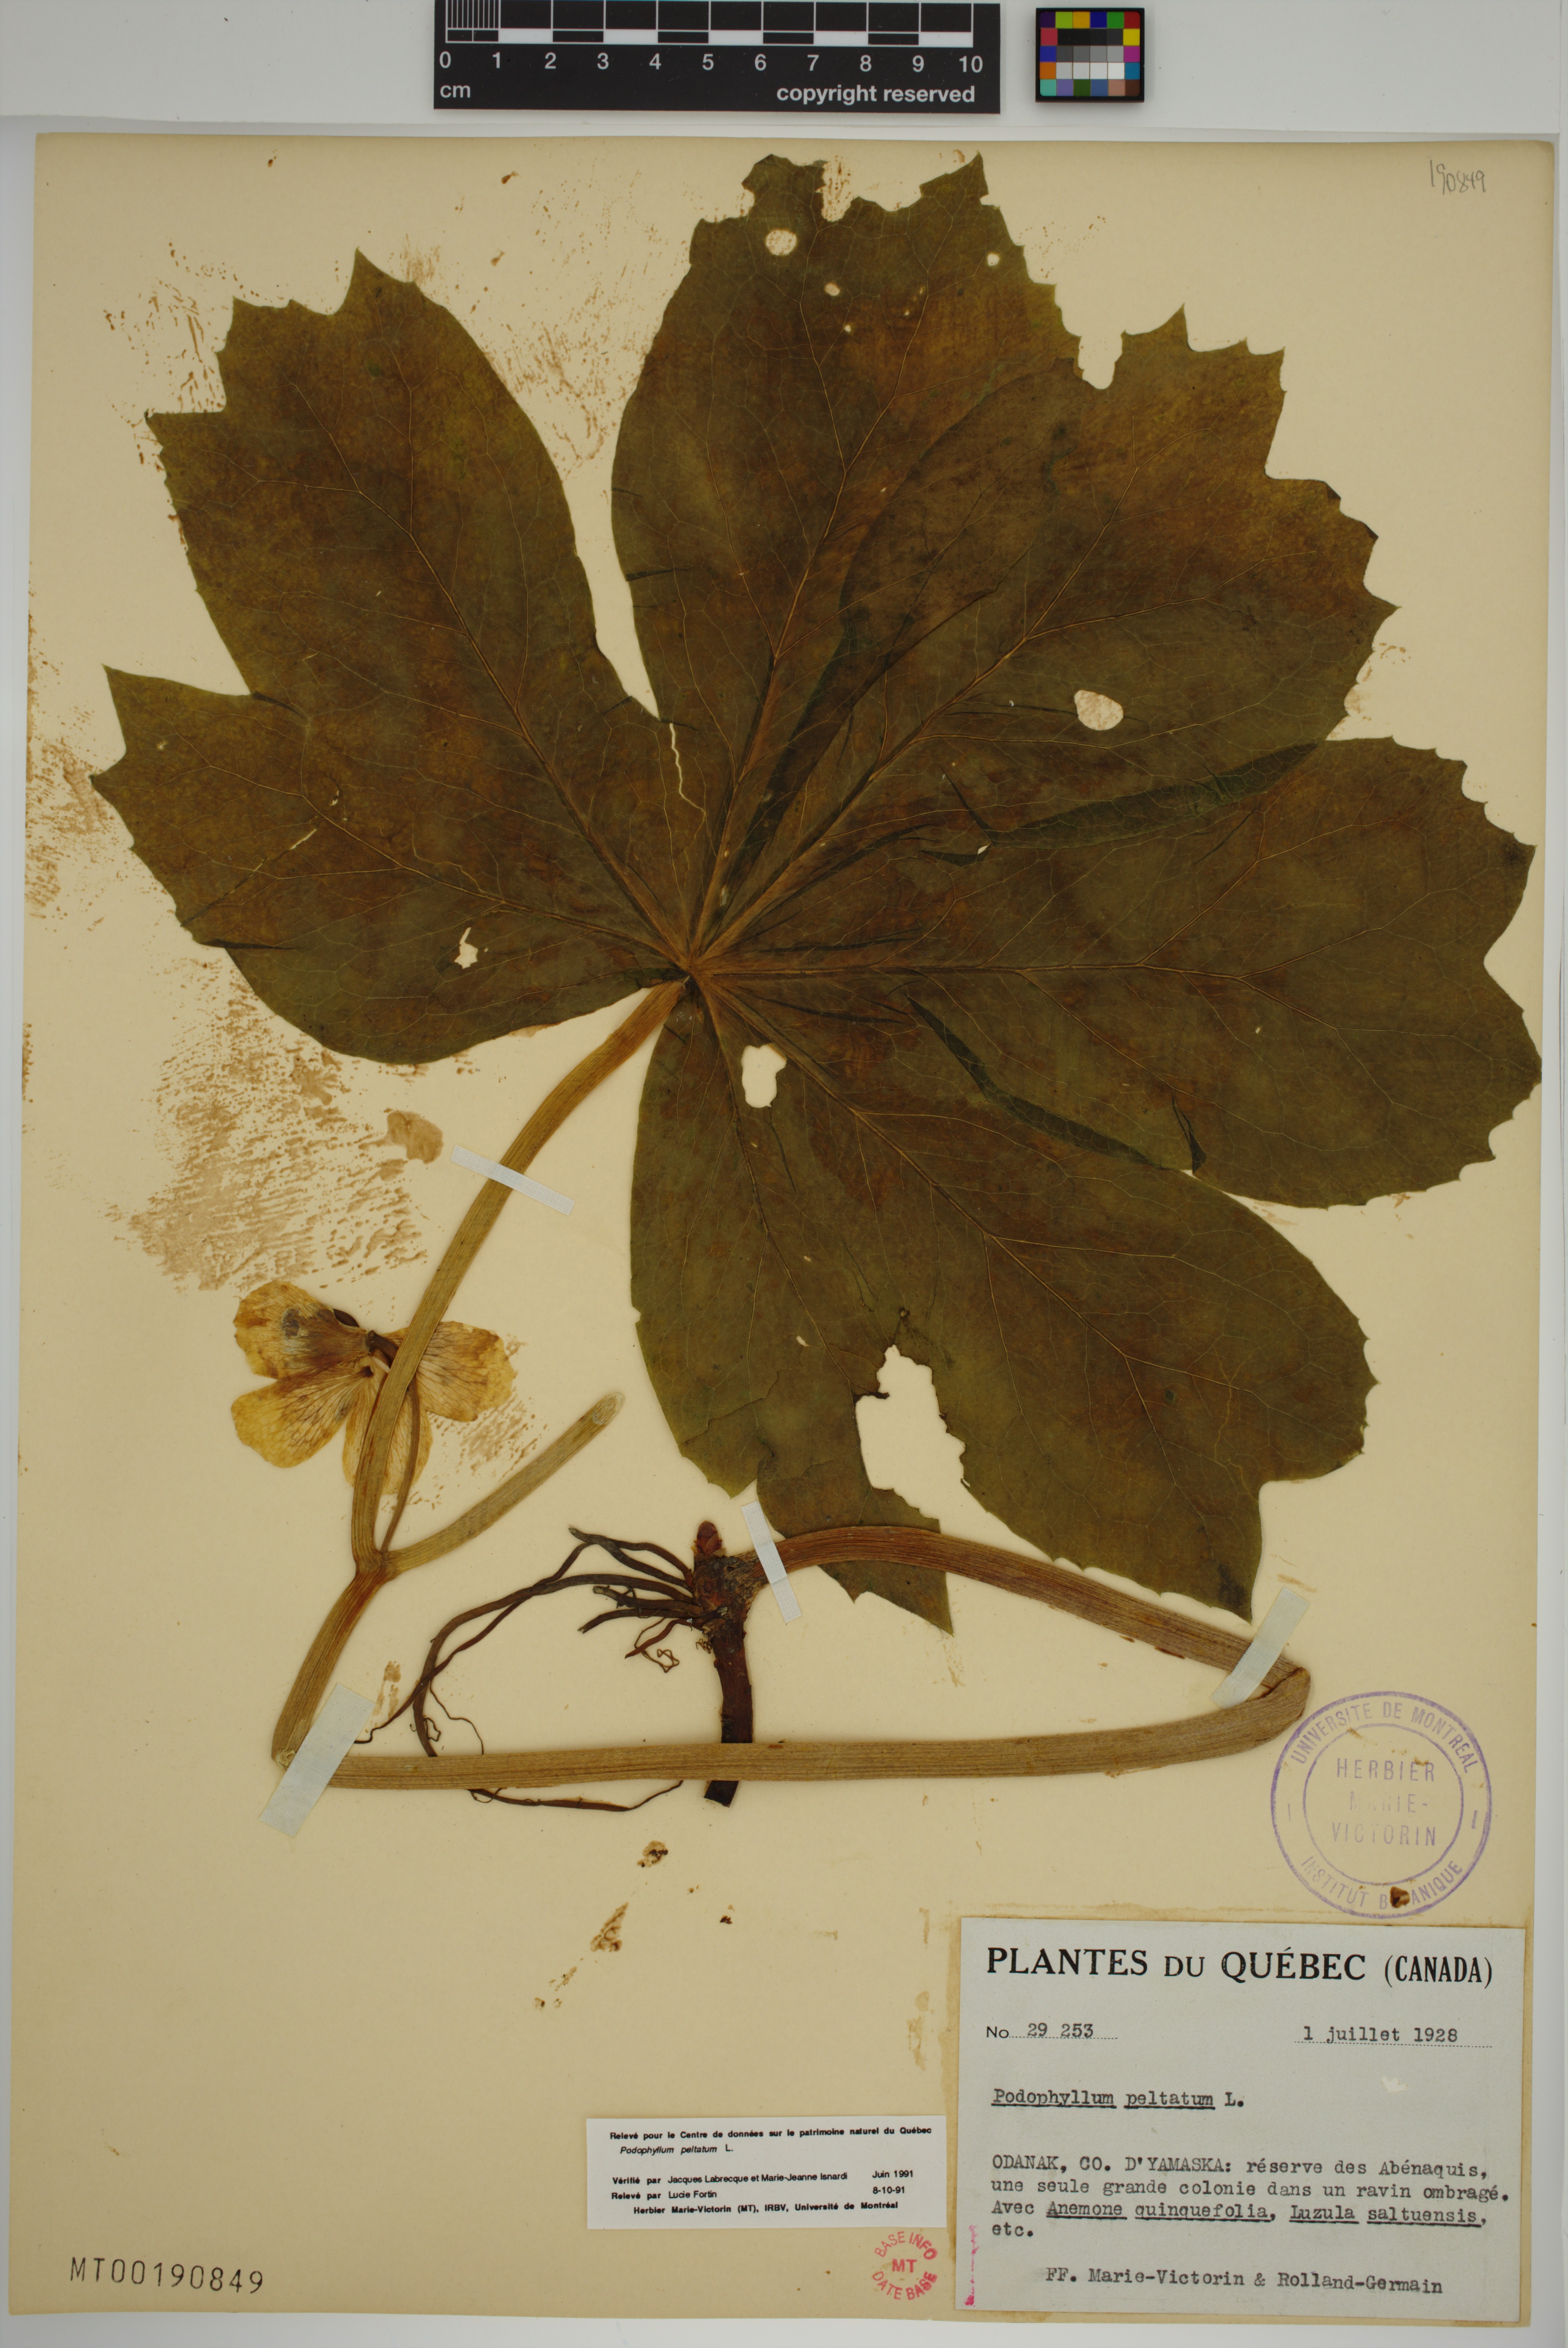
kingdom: Plantae
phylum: Tracheophyta
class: Magnoliopsida
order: Ranunculales
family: Berberidaceae
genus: Podophyllum
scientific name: Podophyllum peltatum
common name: Wild mandrake
